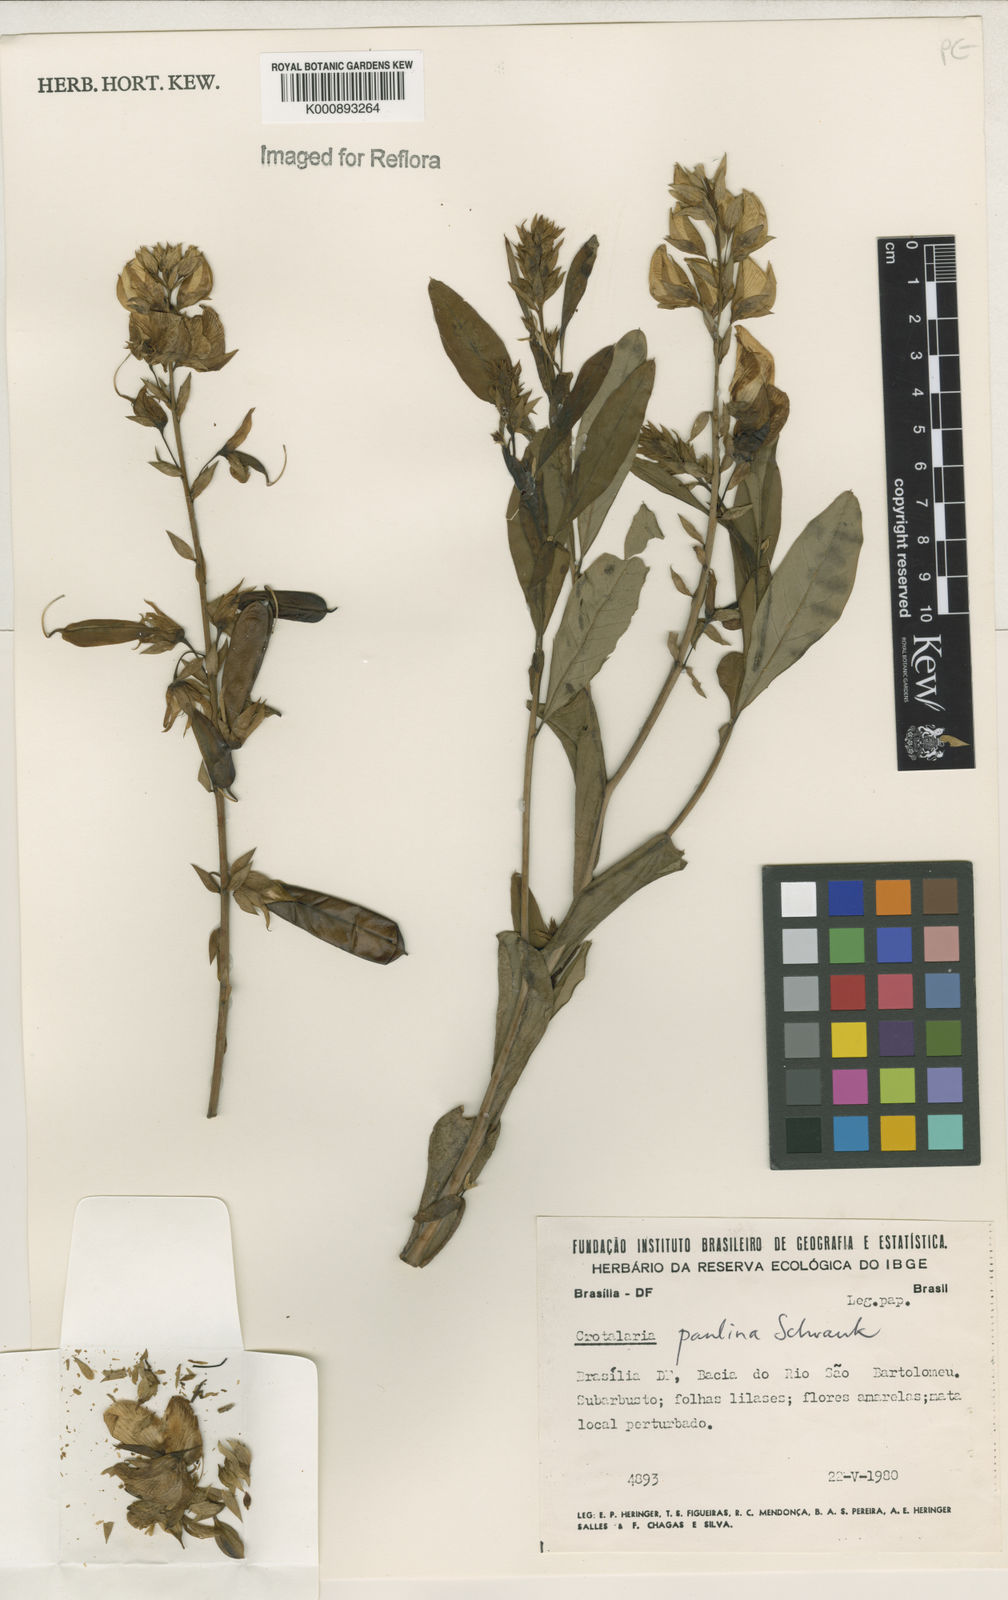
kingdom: Plantae
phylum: Tracheophyta
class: Magnoliopsida
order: Fabales
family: Fabaceae
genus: Crotalaria
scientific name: Crotalaria paulina
